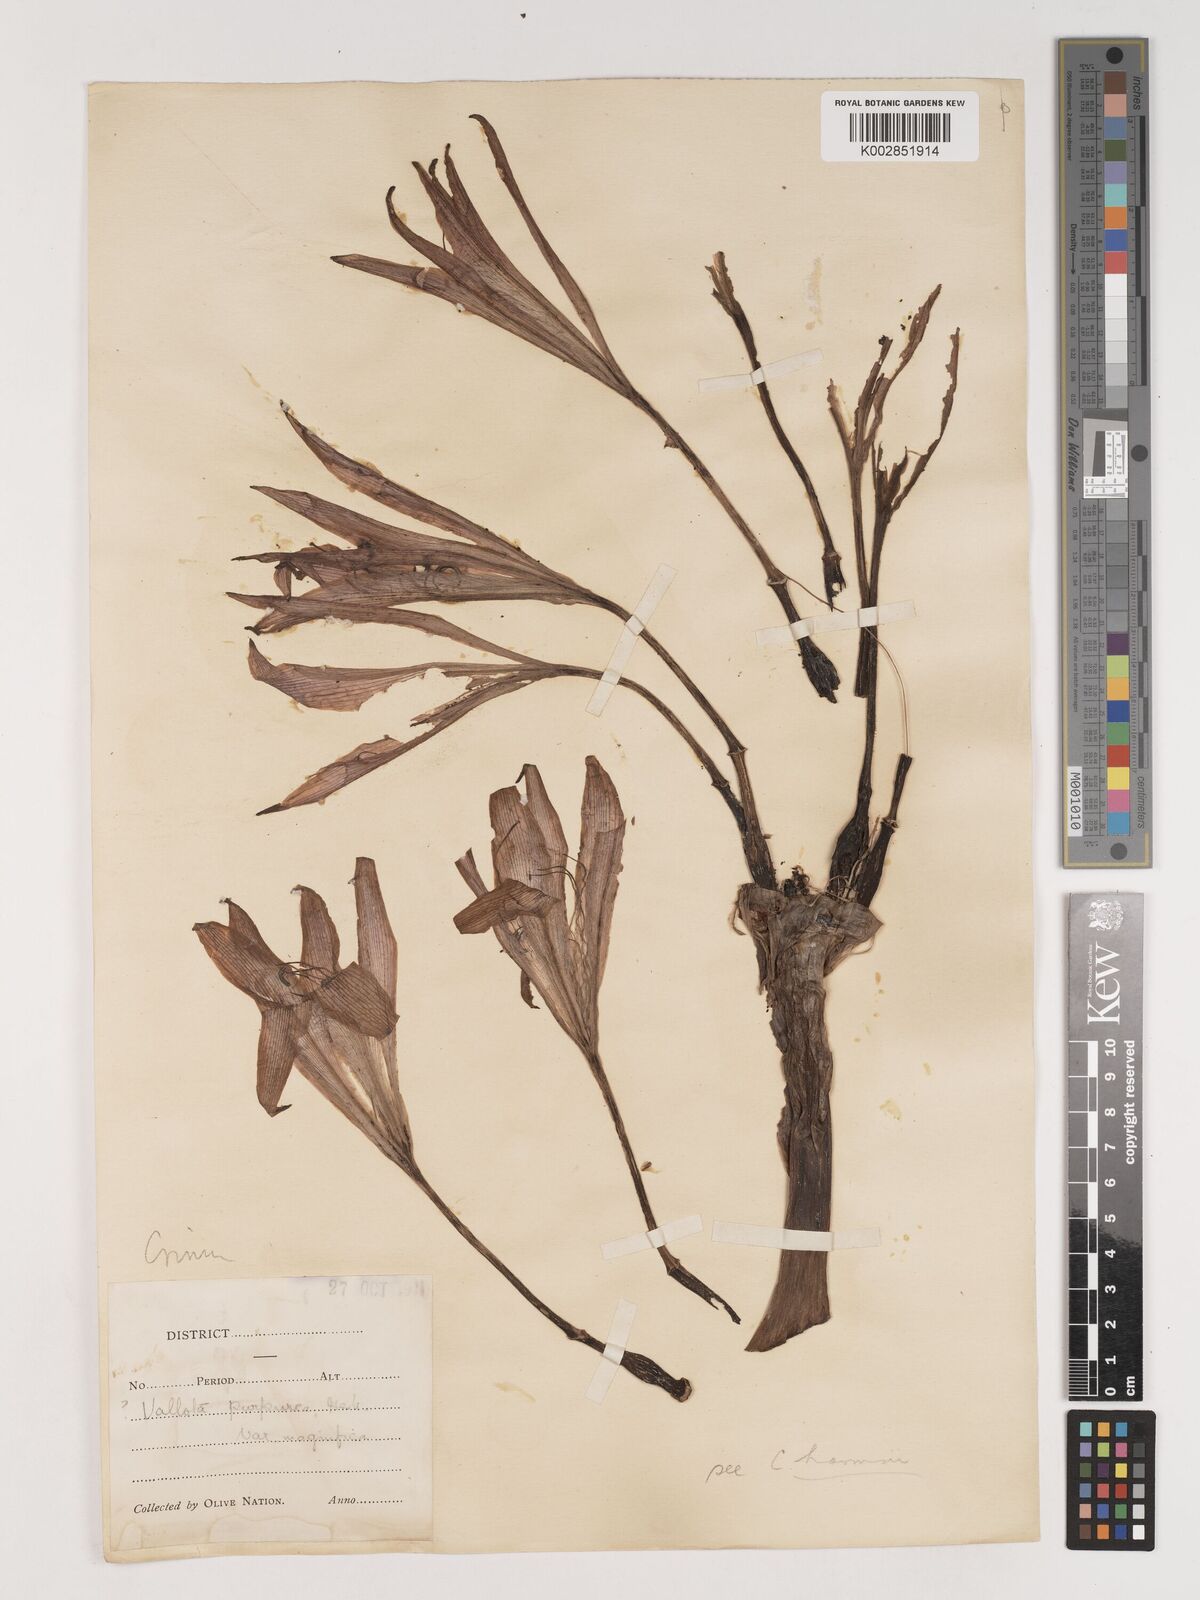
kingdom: Plantae
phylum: Tracheophyta
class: Liliopsida
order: Asparagales
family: Amaryllidaceae
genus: Crinum
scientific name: Crinum
